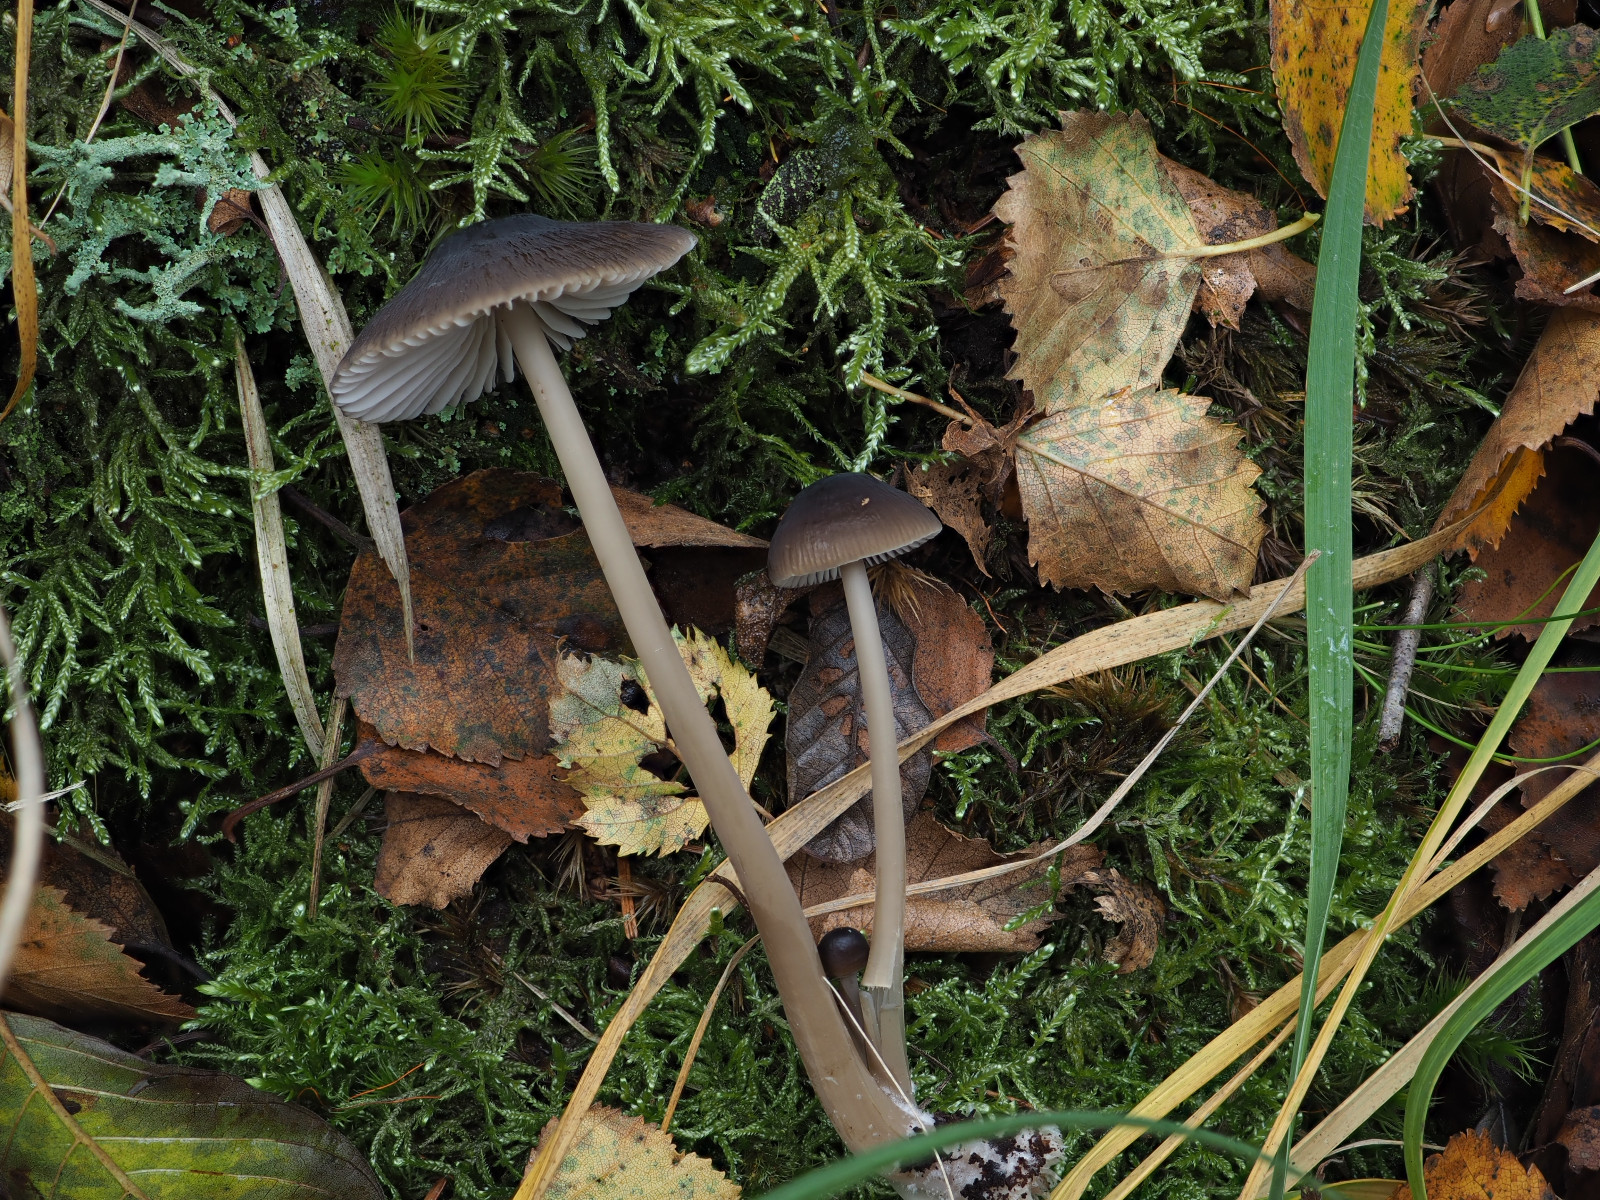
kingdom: Fungi
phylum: Basidiomycota
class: Agaricomycetes
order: Agaricales
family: Mycenaceae
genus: Mycena
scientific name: Mycena megaspora
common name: brusk-huesvamp
